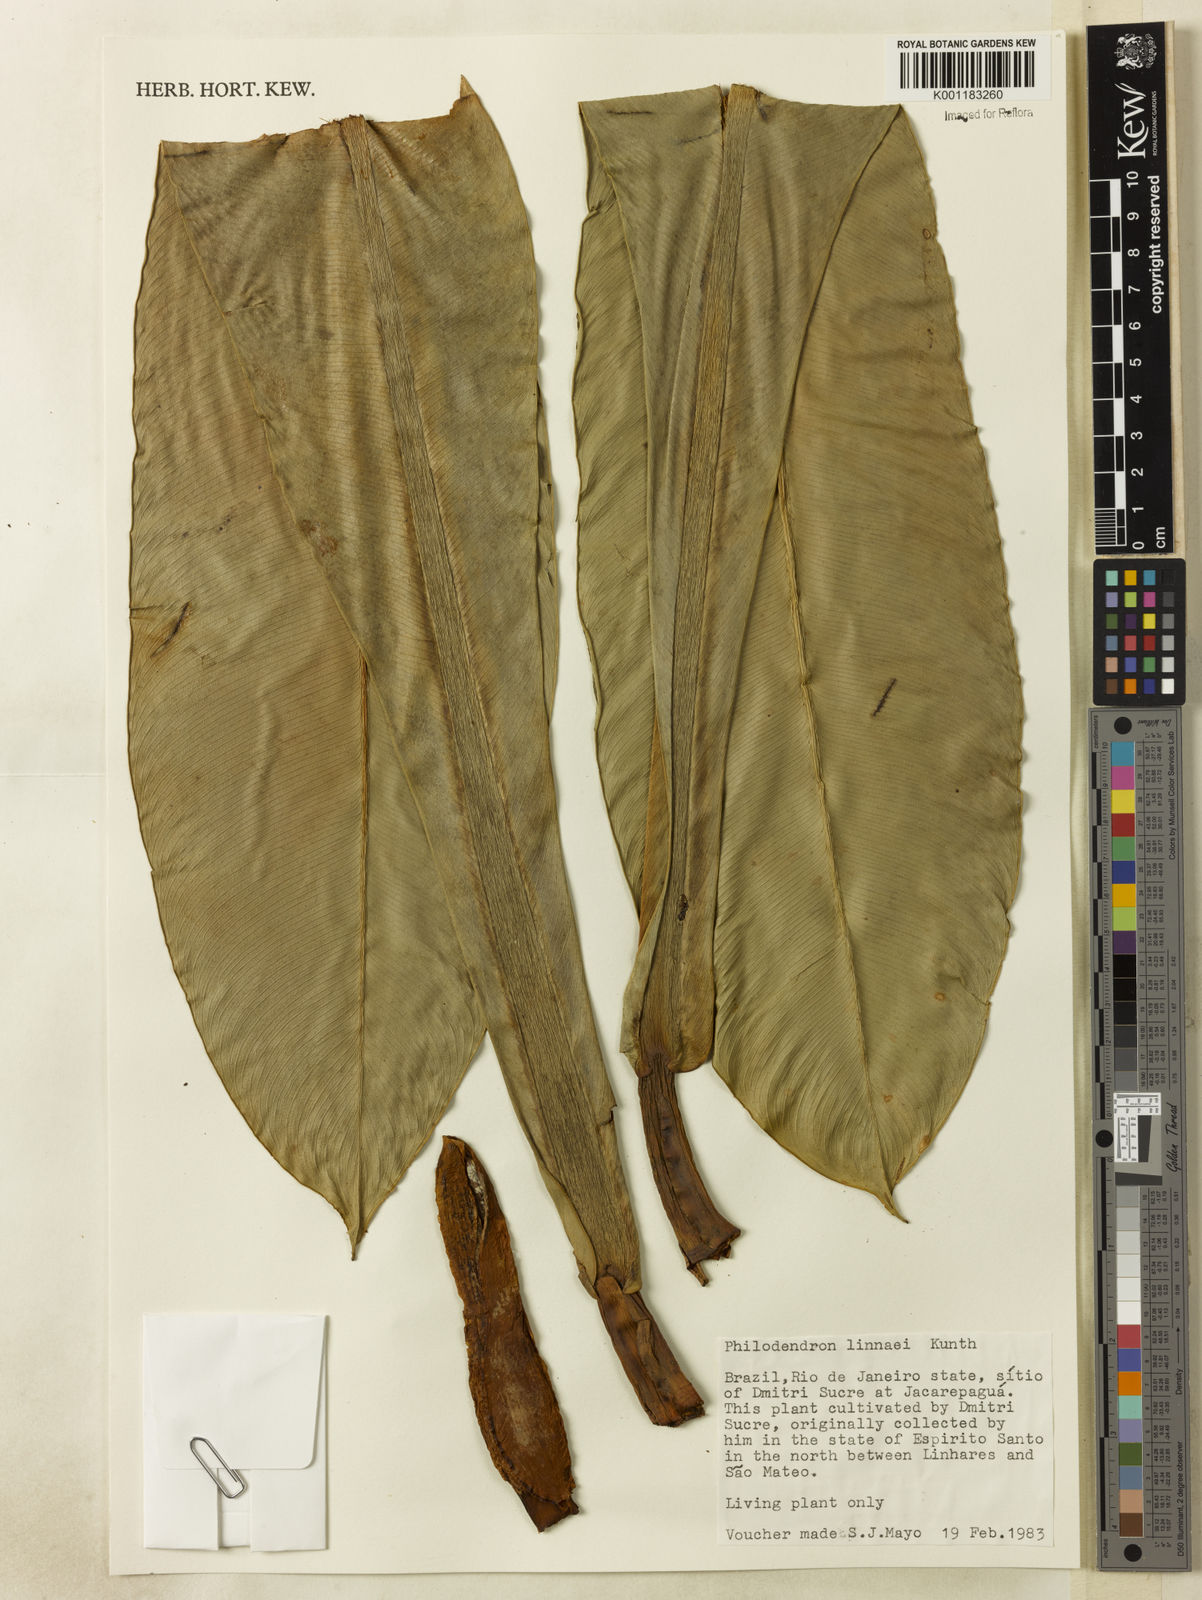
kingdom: Plantae
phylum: Tracheophyta
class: Liliopsida
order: Alismatales
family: Araceae
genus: Philodendron
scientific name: Philodendron linnaei
